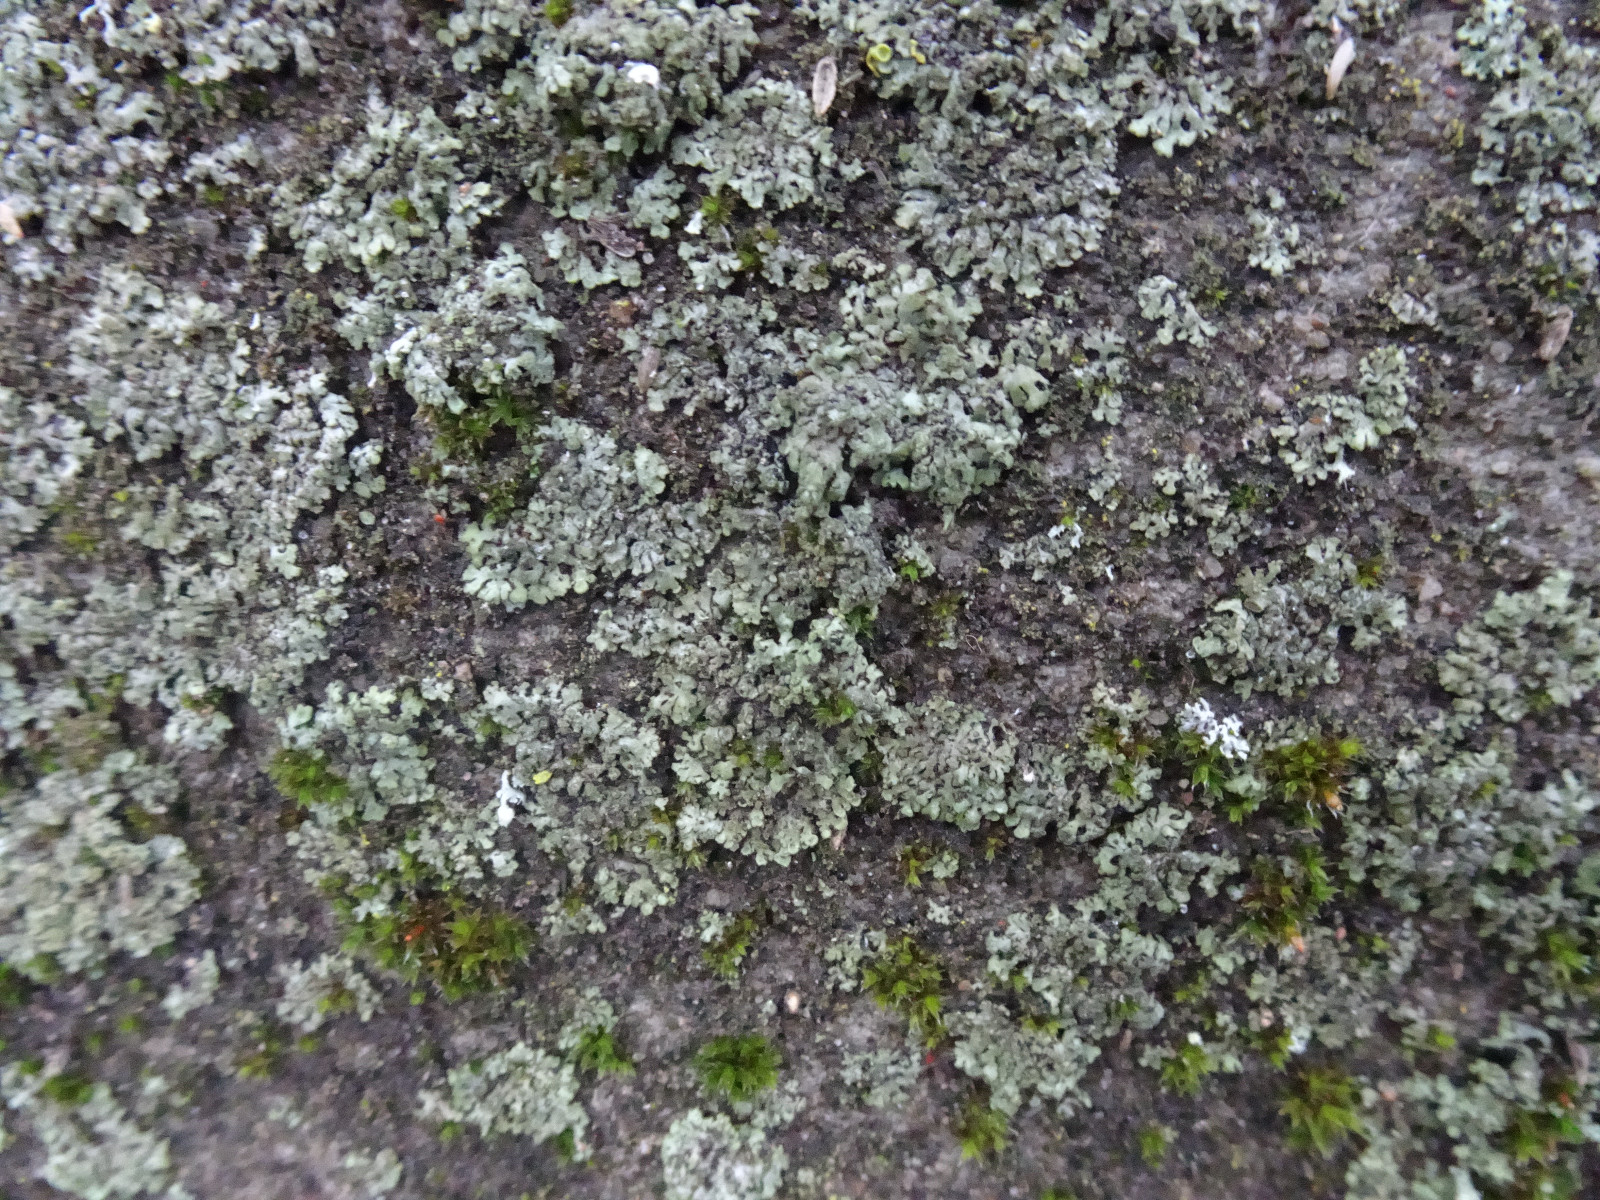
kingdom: Fungi
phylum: Ascomycota
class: Lecanoromycetes
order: Caliciales
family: Physciaceae
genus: Phaeophyscia
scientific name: Phaeophyscia orbicularis
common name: grågrøn rosetlav
